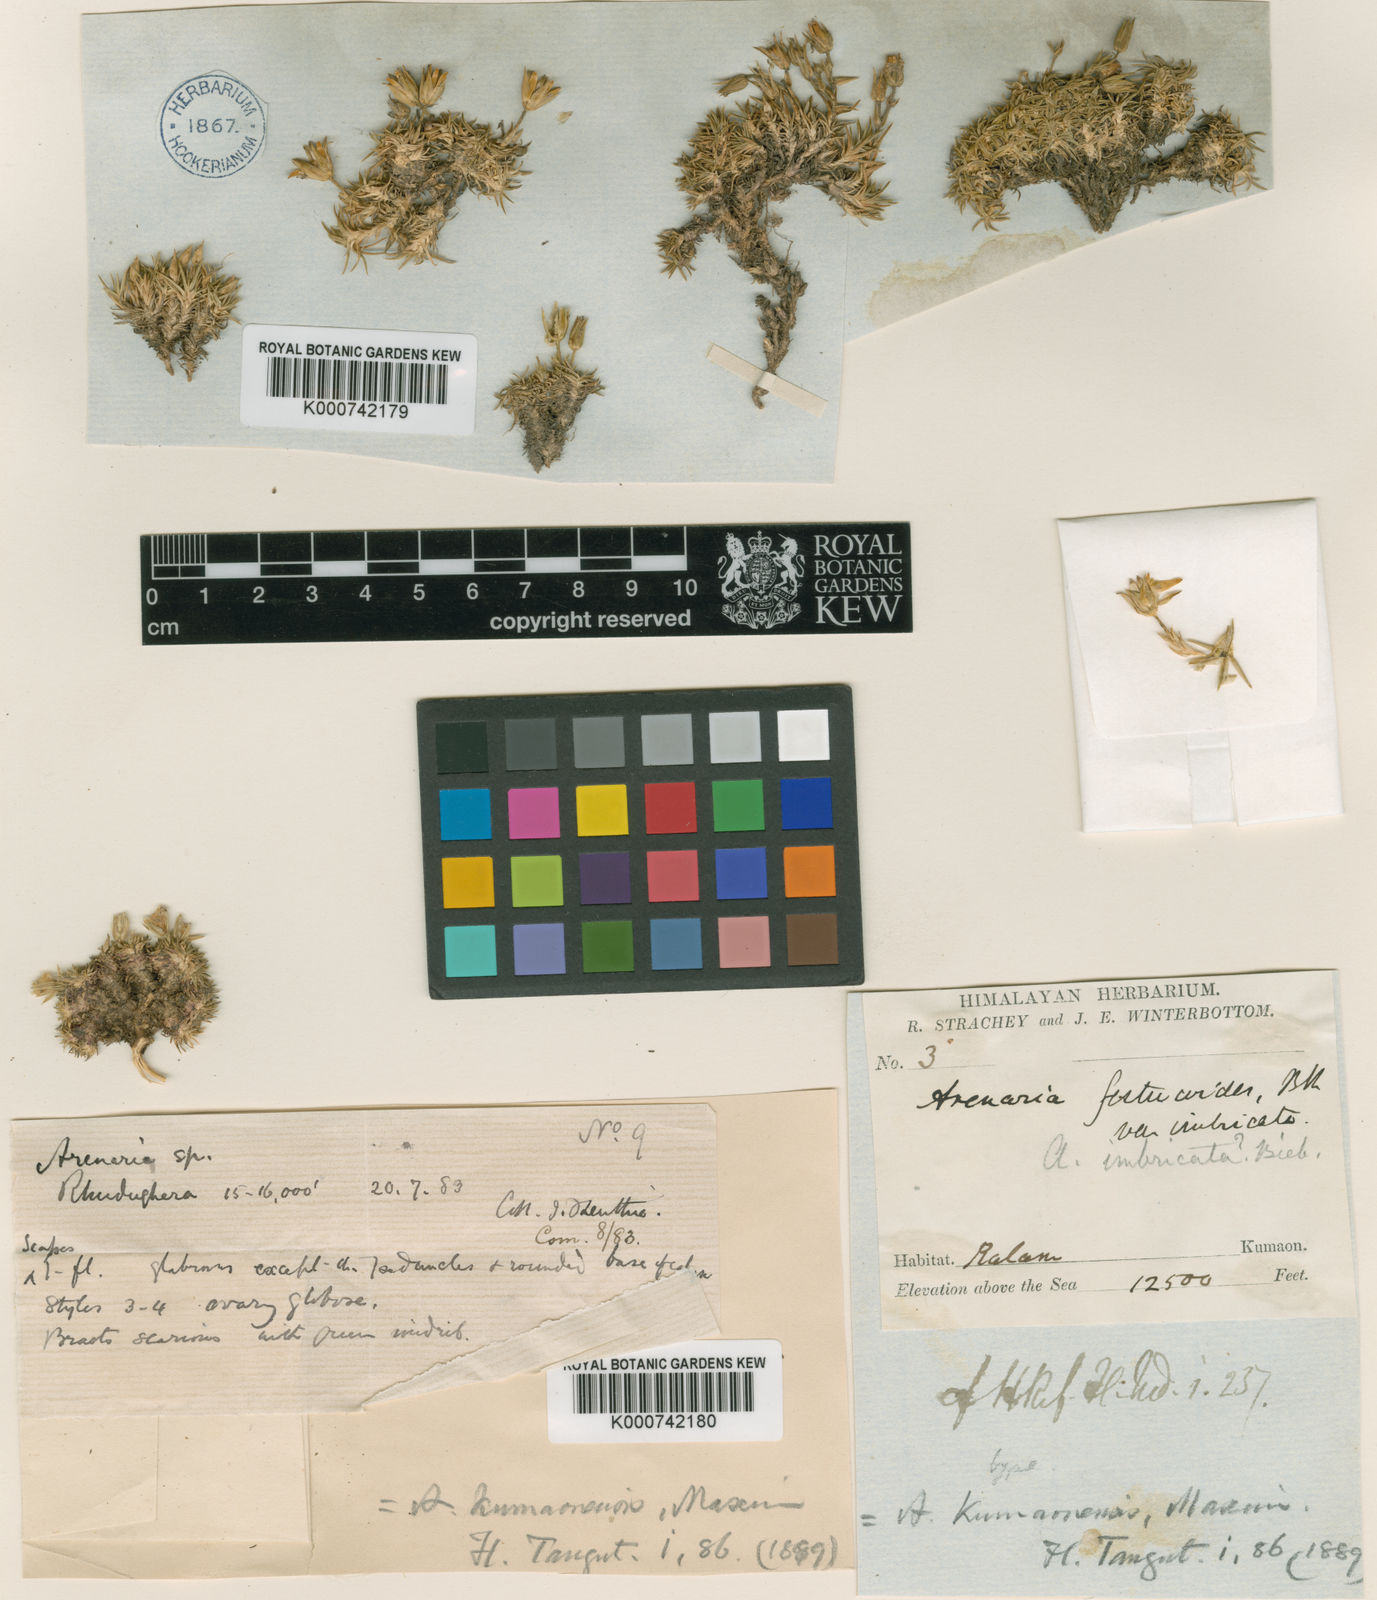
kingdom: Plantae
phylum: Tracheophyta
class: Magnoliopsida
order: Caryophyllales
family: Caryophyllaceae
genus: Eremogone
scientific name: Eremogone kumaonensis
